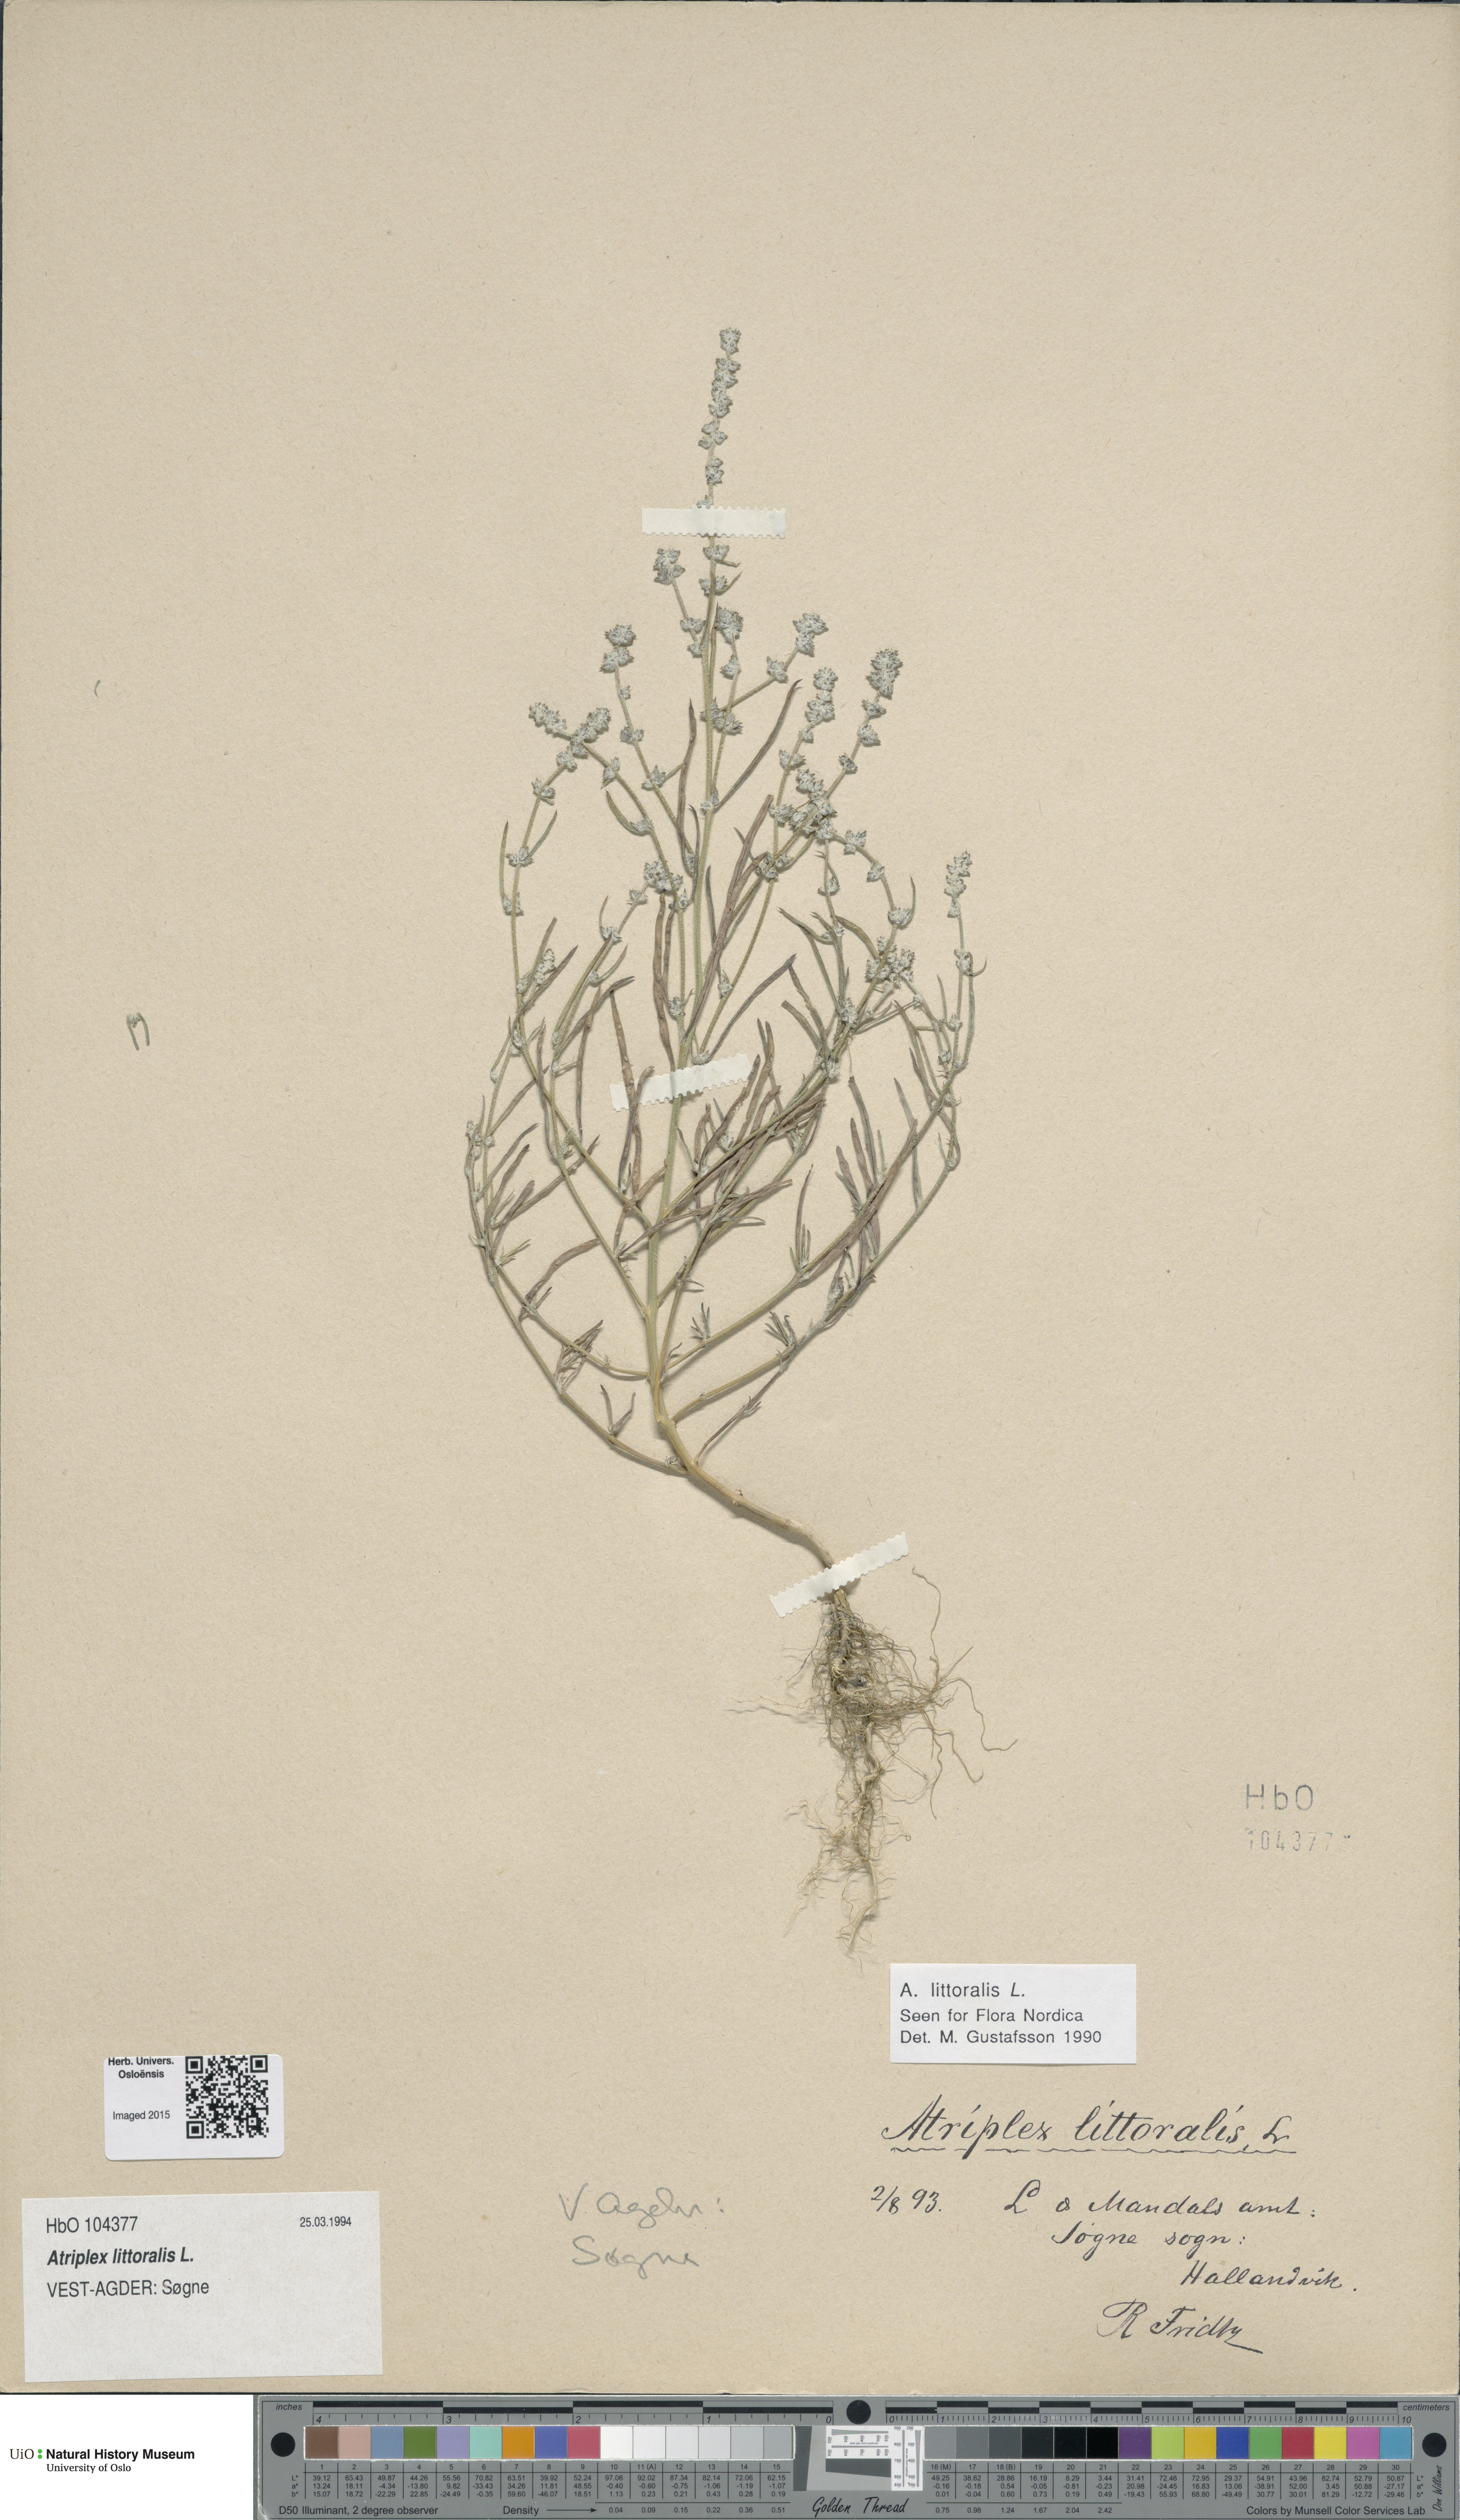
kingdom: Plantae
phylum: Tracheophyta
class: Magnoliopsida
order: Caryophyllales
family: Amaranthaceae
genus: Atriplex
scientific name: Atriplex littoralis
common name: Grass-leaved orache
